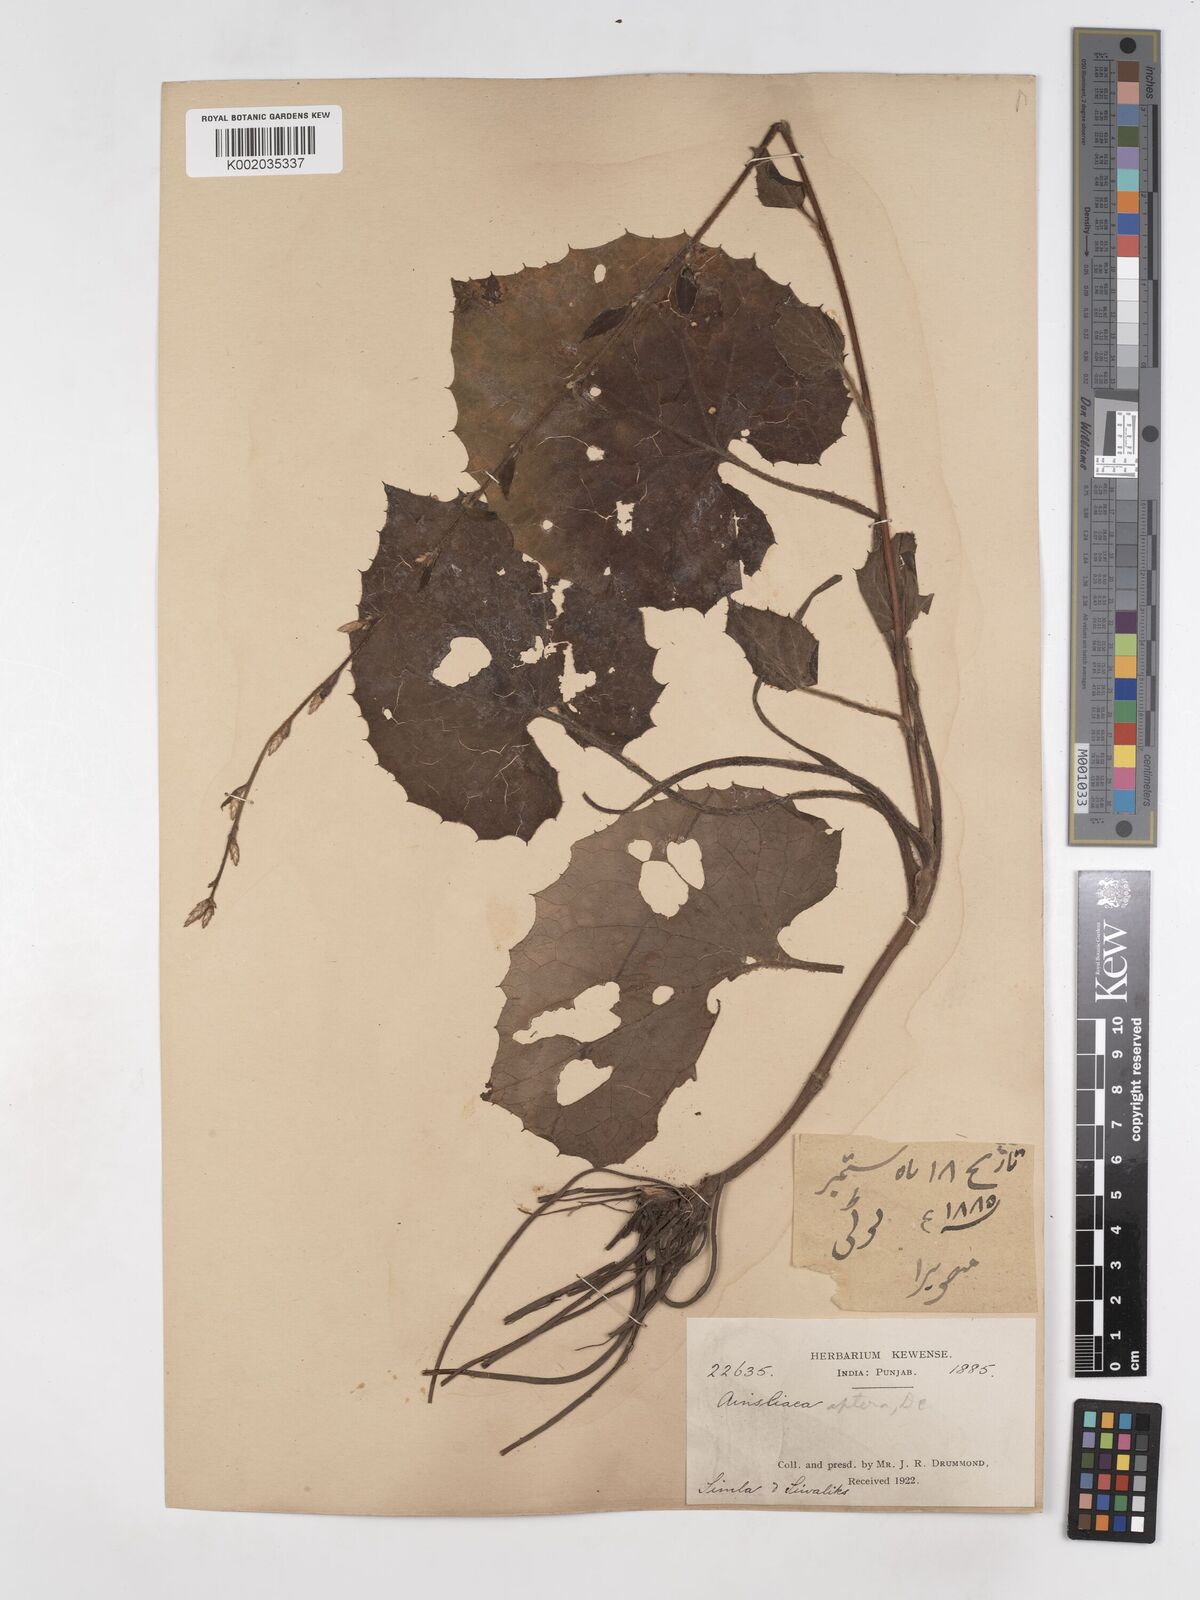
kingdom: Plantae
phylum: Tracheophyta
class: Magnoliopsida
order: Asterales
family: Asteraceae
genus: Ainsliaea
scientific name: Ainsliaea aptera
